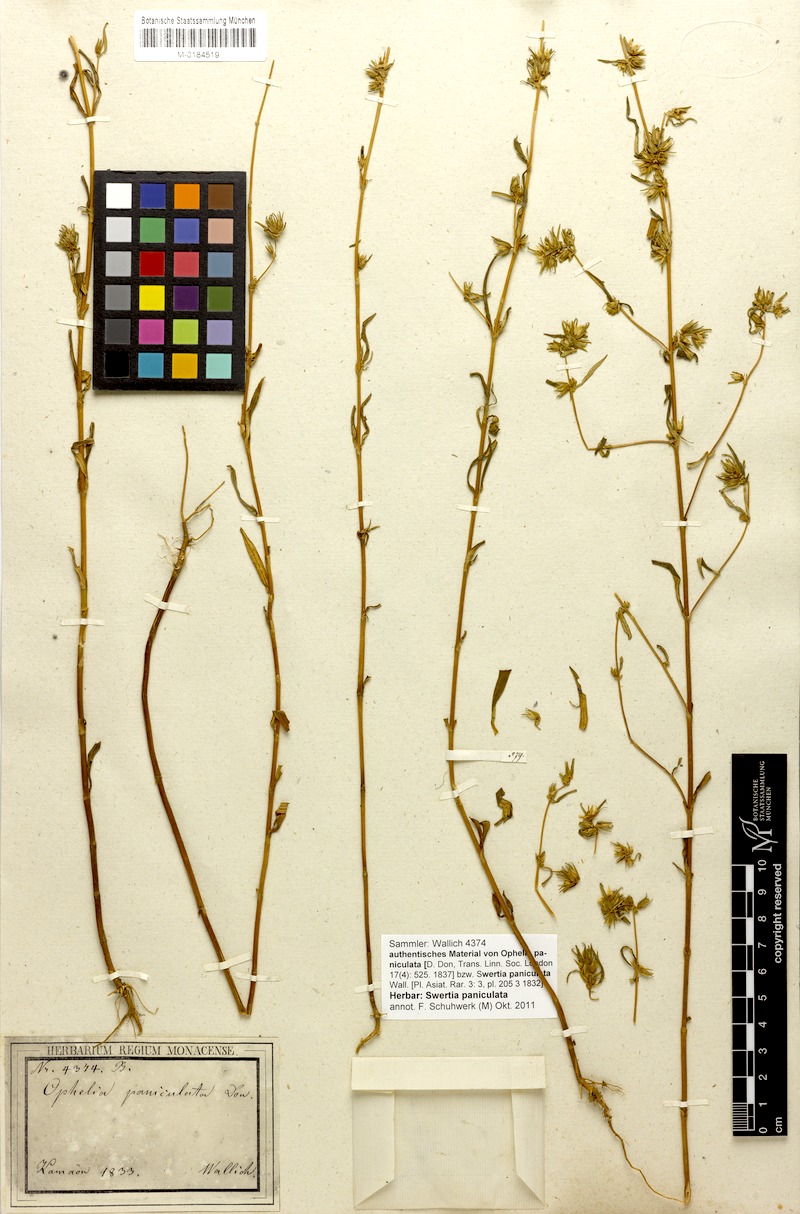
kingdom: Plantae
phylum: Tracheophyta
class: Magnoliopsida
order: Gentianales
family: Gentianaceae
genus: Swertia
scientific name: Swertia paniculata
